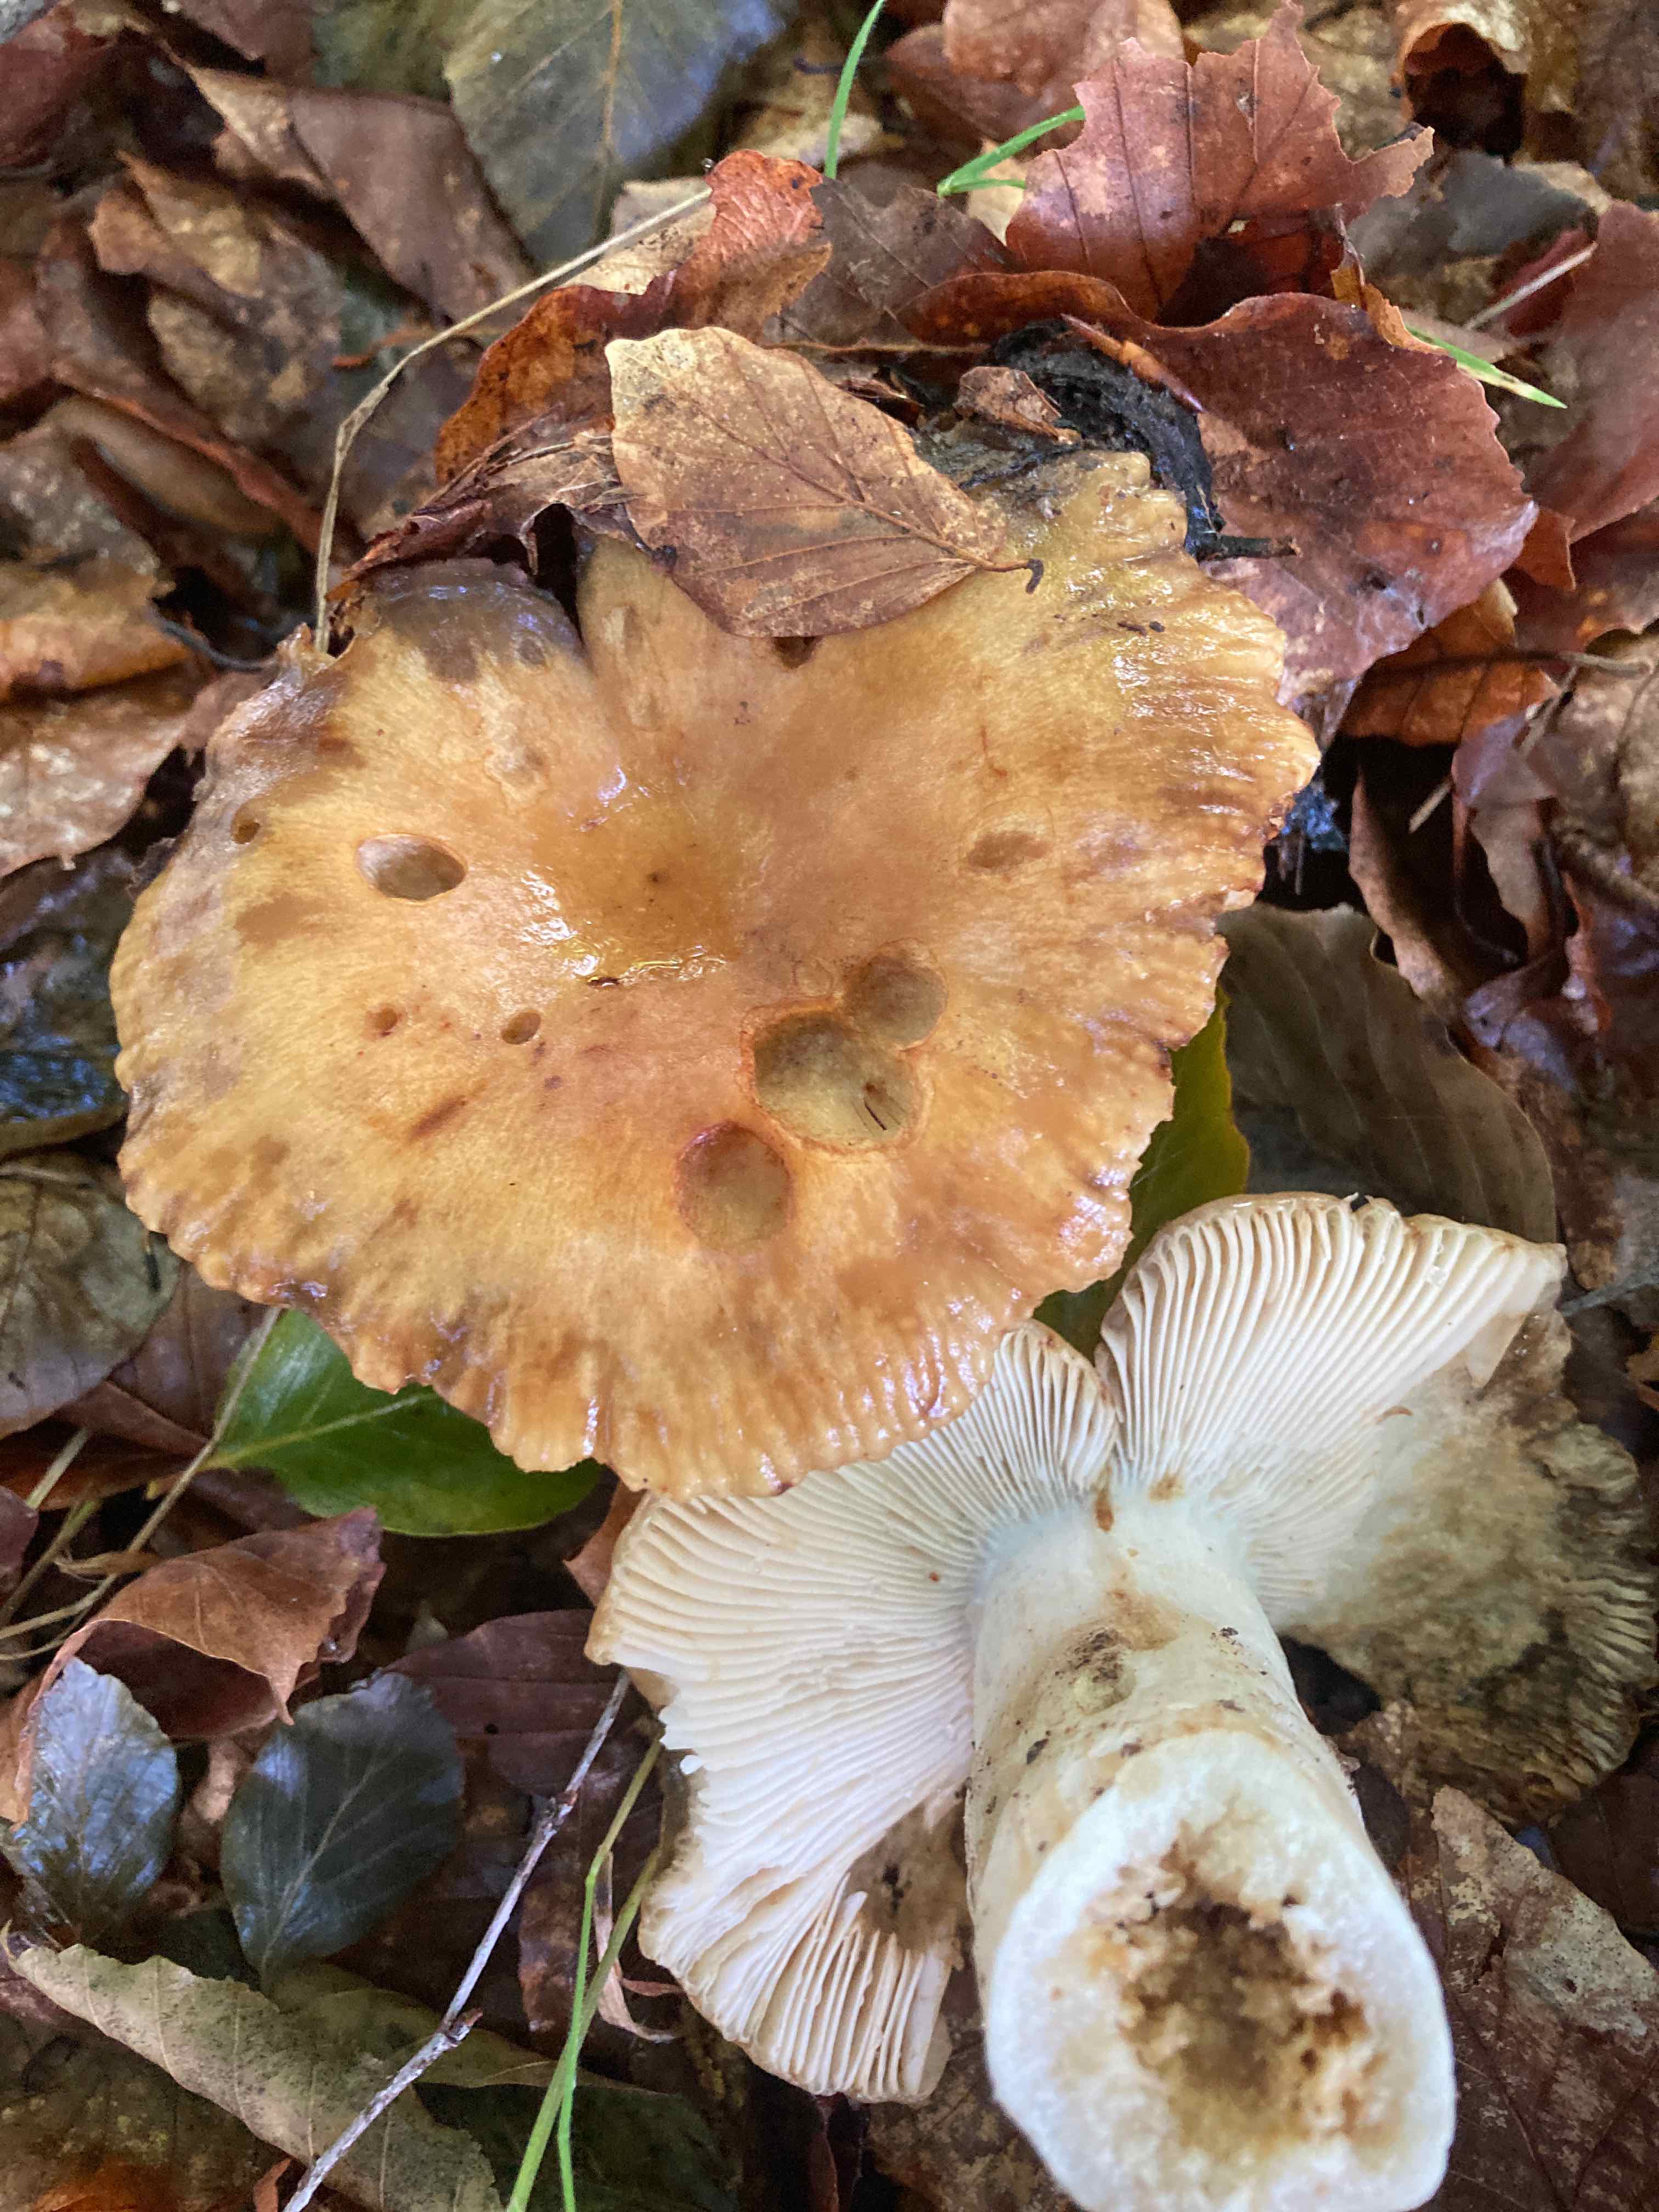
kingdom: Fungi
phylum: Basidiomycota
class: Agaricomycetes
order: Russulales
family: Russulaceae
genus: Russula
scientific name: Russula grata
